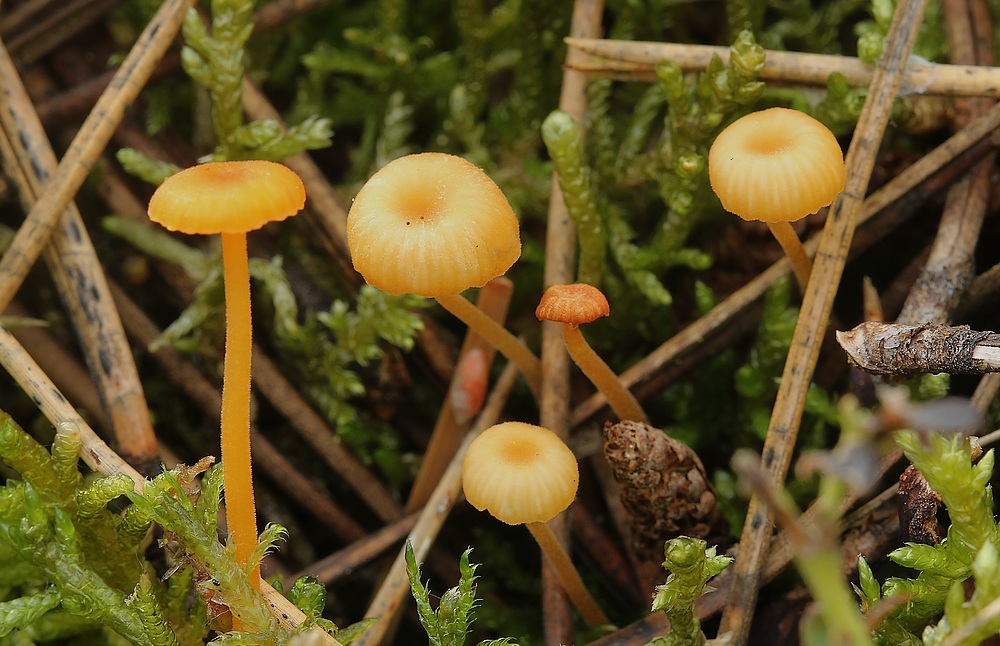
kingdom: Fungi
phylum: Basidiomycota
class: Agaricomycetes
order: Hymenochaetales
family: Rickenellaceae
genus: Rickenella
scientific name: Rickenella fibula
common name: orange mosnavlehat
